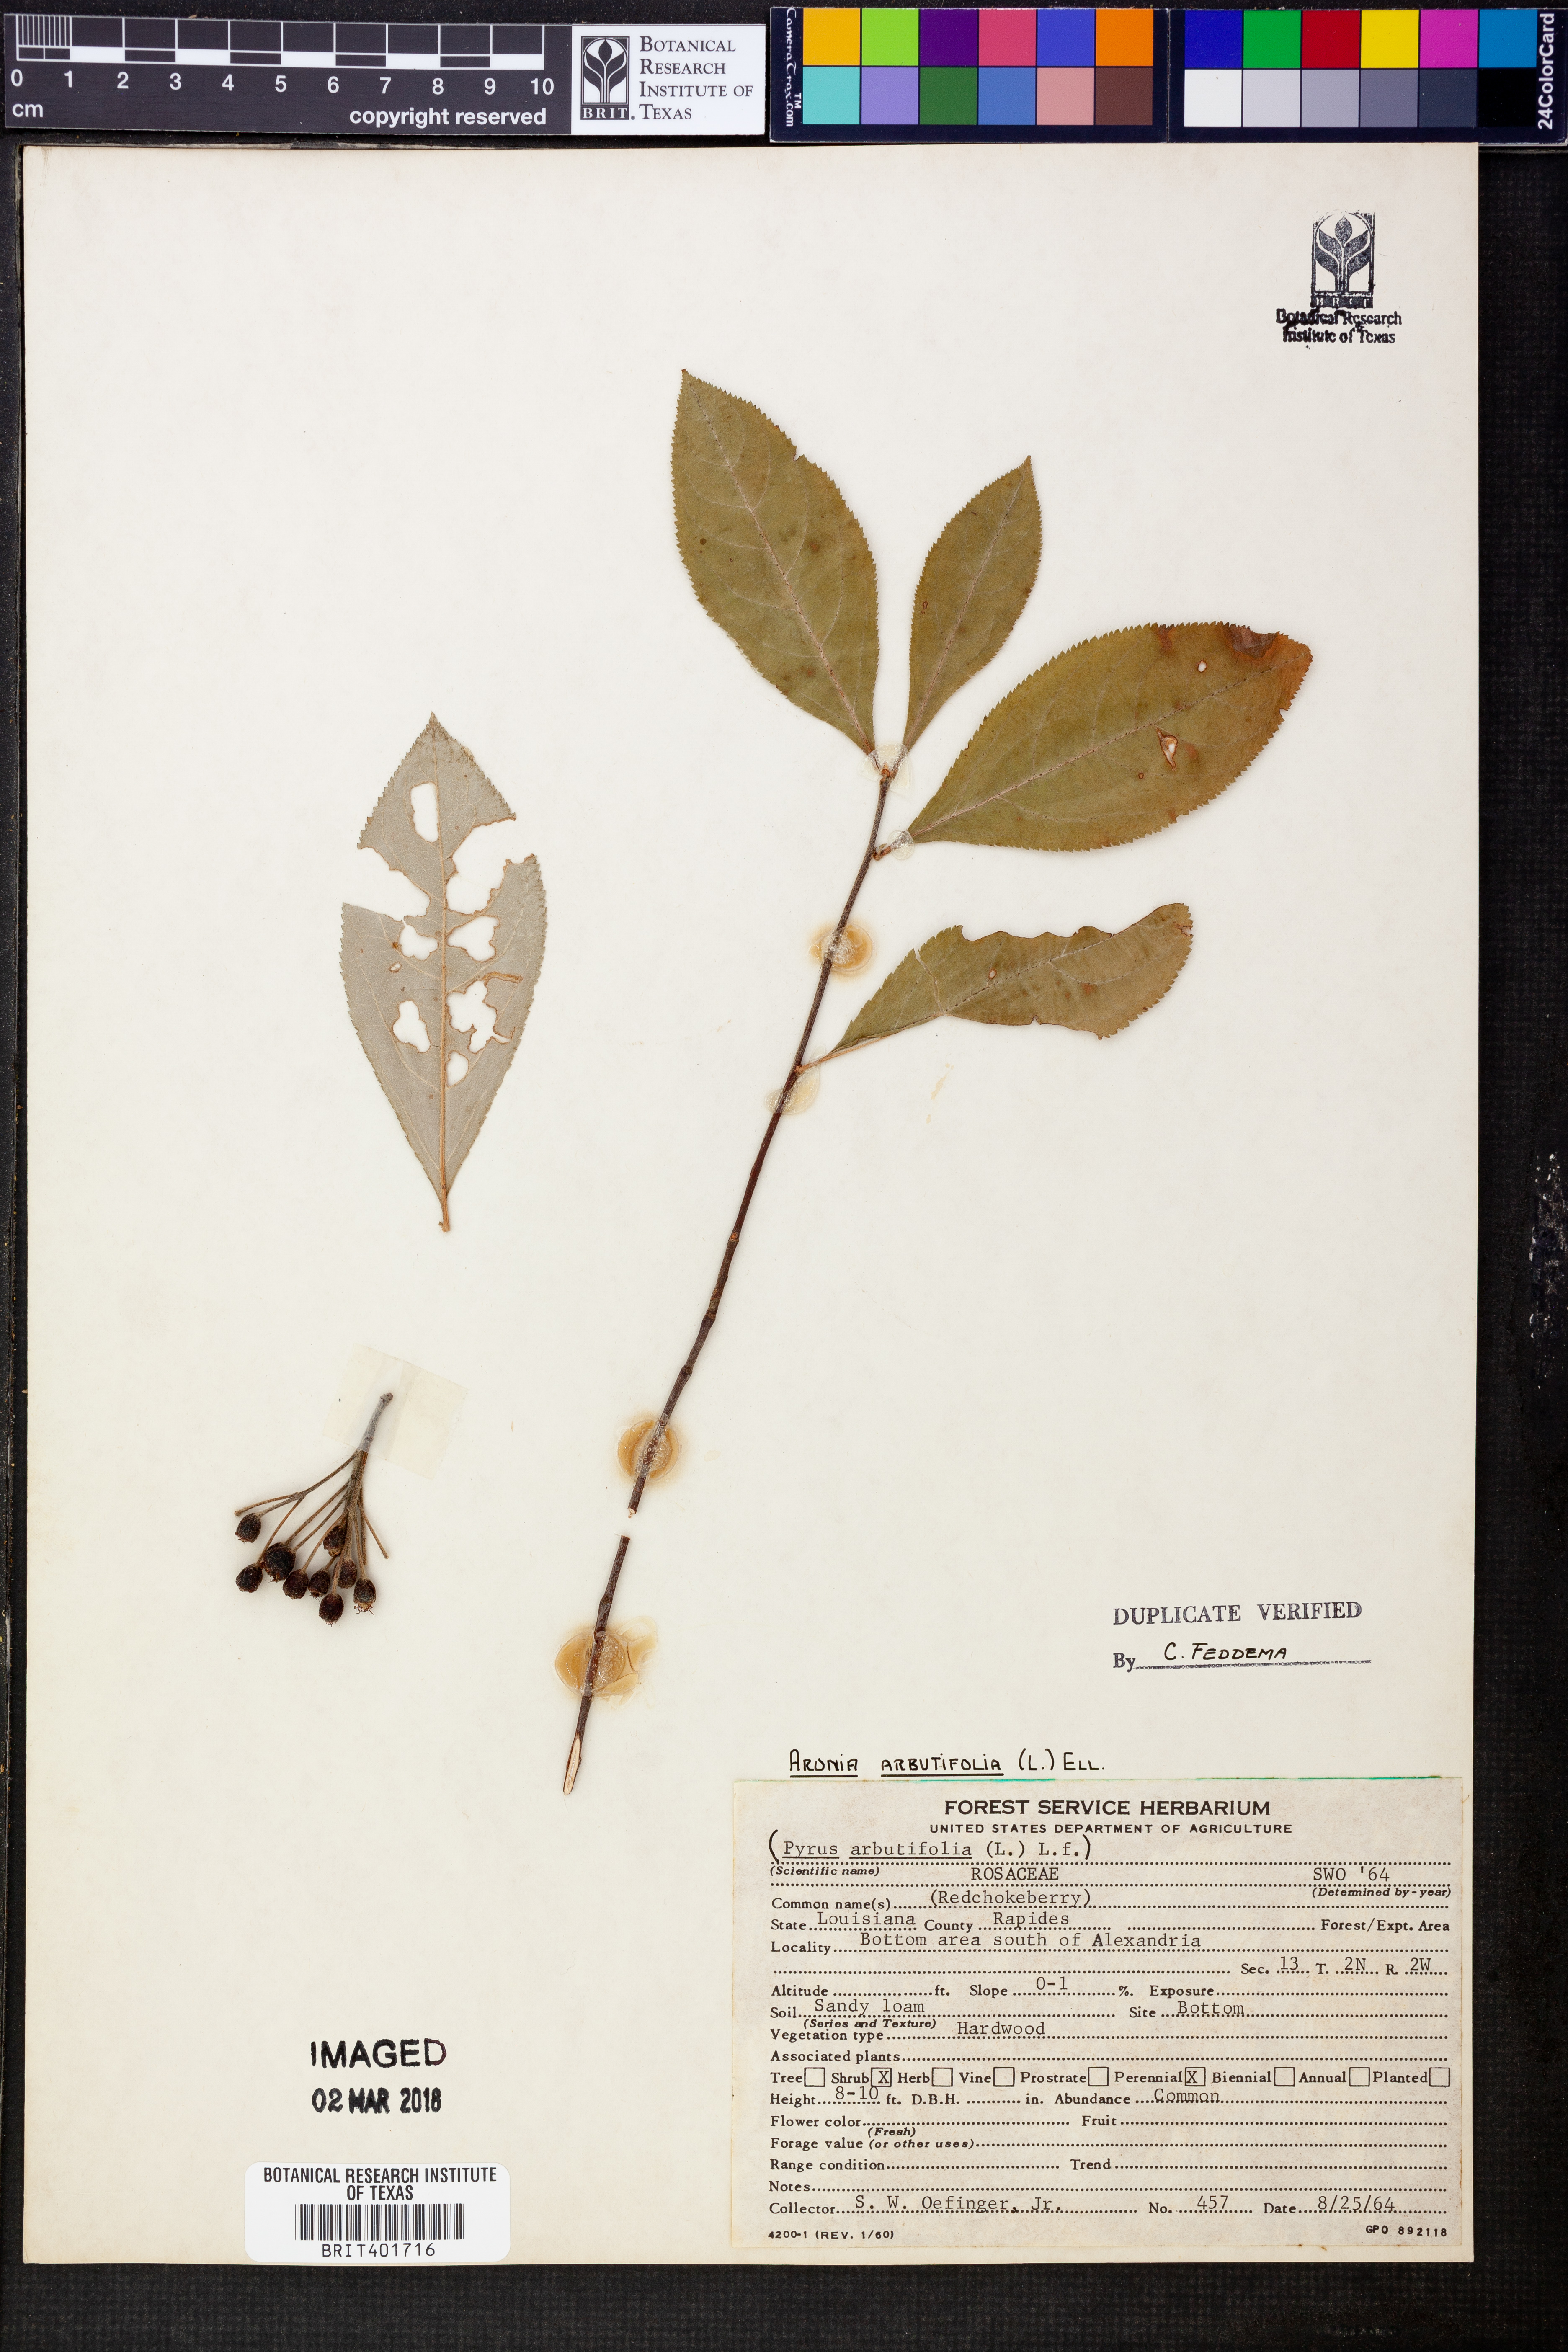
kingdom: Plantae
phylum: Tracheophyta
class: Magnoliopsida
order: Rosales
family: Rosaceae
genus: Aronia
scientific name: Aronia arbutifolia
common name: Red chokeberry
